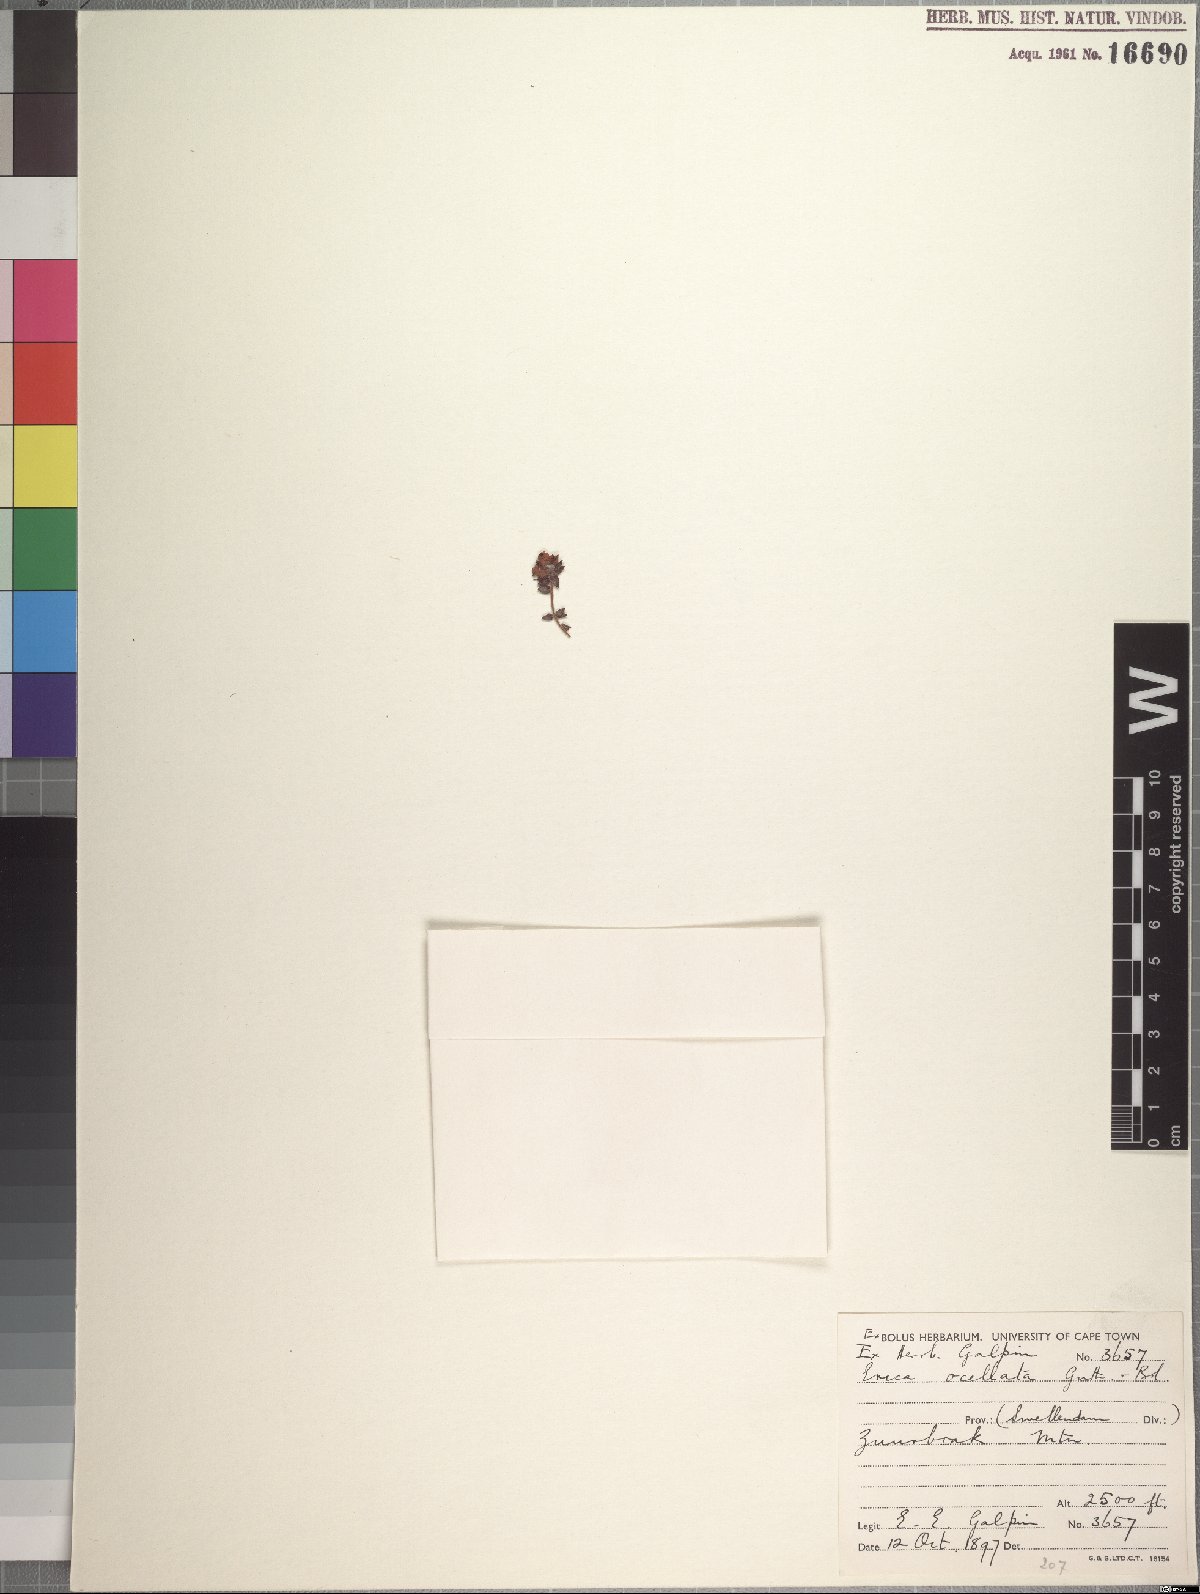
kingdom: Plantae
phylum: Tracheophyta
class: Magnoliopsida
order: Ericales
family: Ericaceae
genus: Erica
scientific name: Erica ocellata
